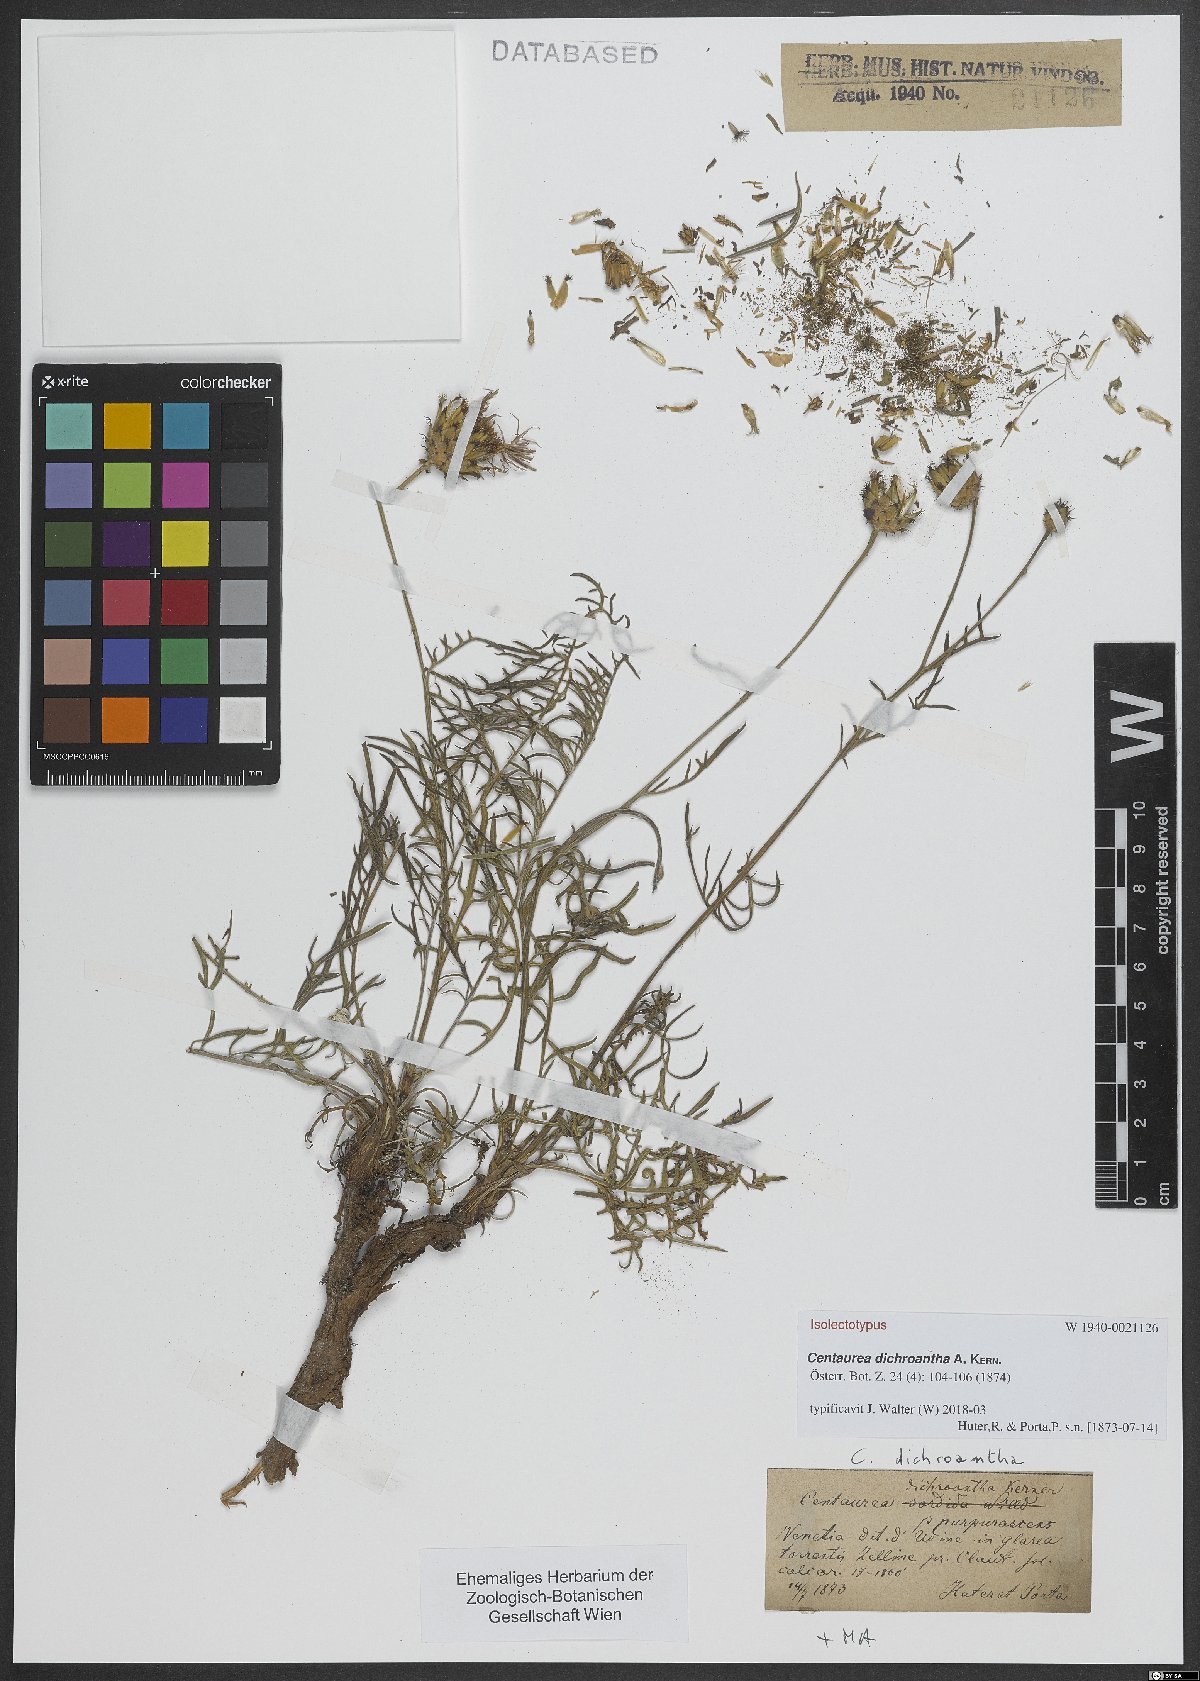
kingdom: Plantae
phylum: Tracheophyta
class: Magnoliopsida
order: Asterales
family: Asteraceae
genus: Centaurea
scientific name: Centaurea dichroantha
